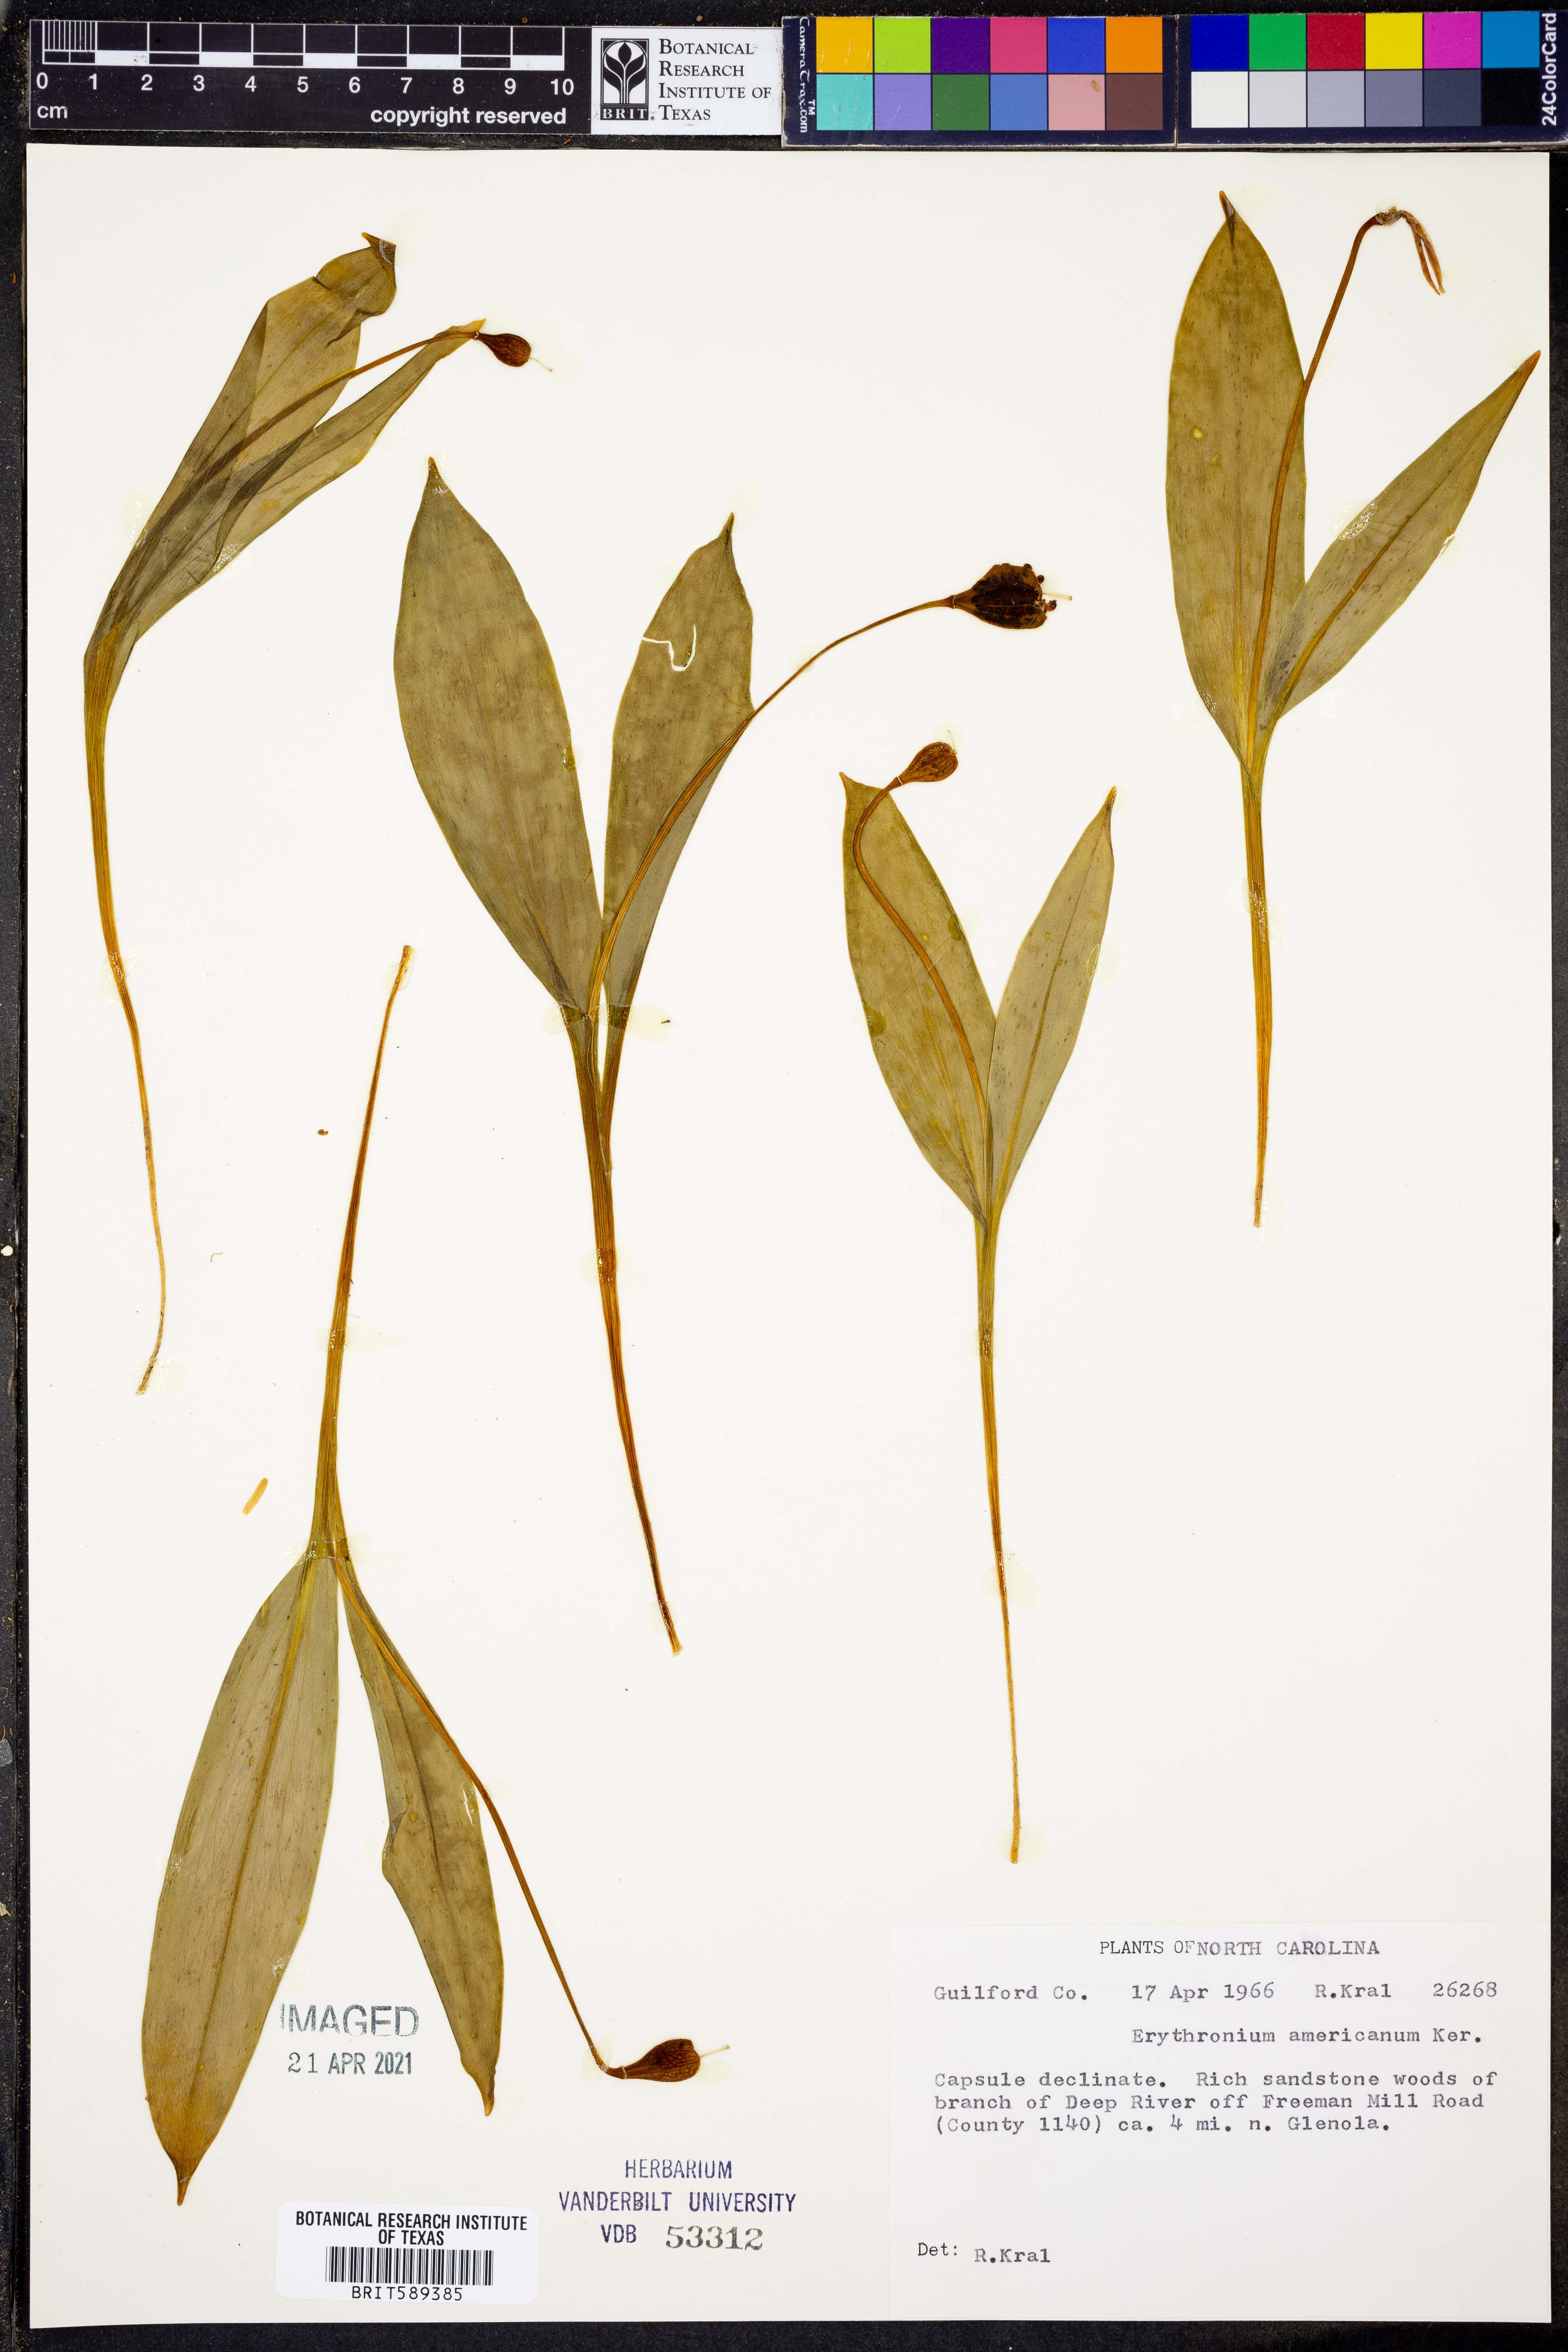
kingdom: Plantae
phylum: Tracheophyta
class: Liliopsida
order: Liliales
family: Liliaceae
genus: Erythronium
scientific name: Erythronium americanum
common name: Yellow adder's-tongue
